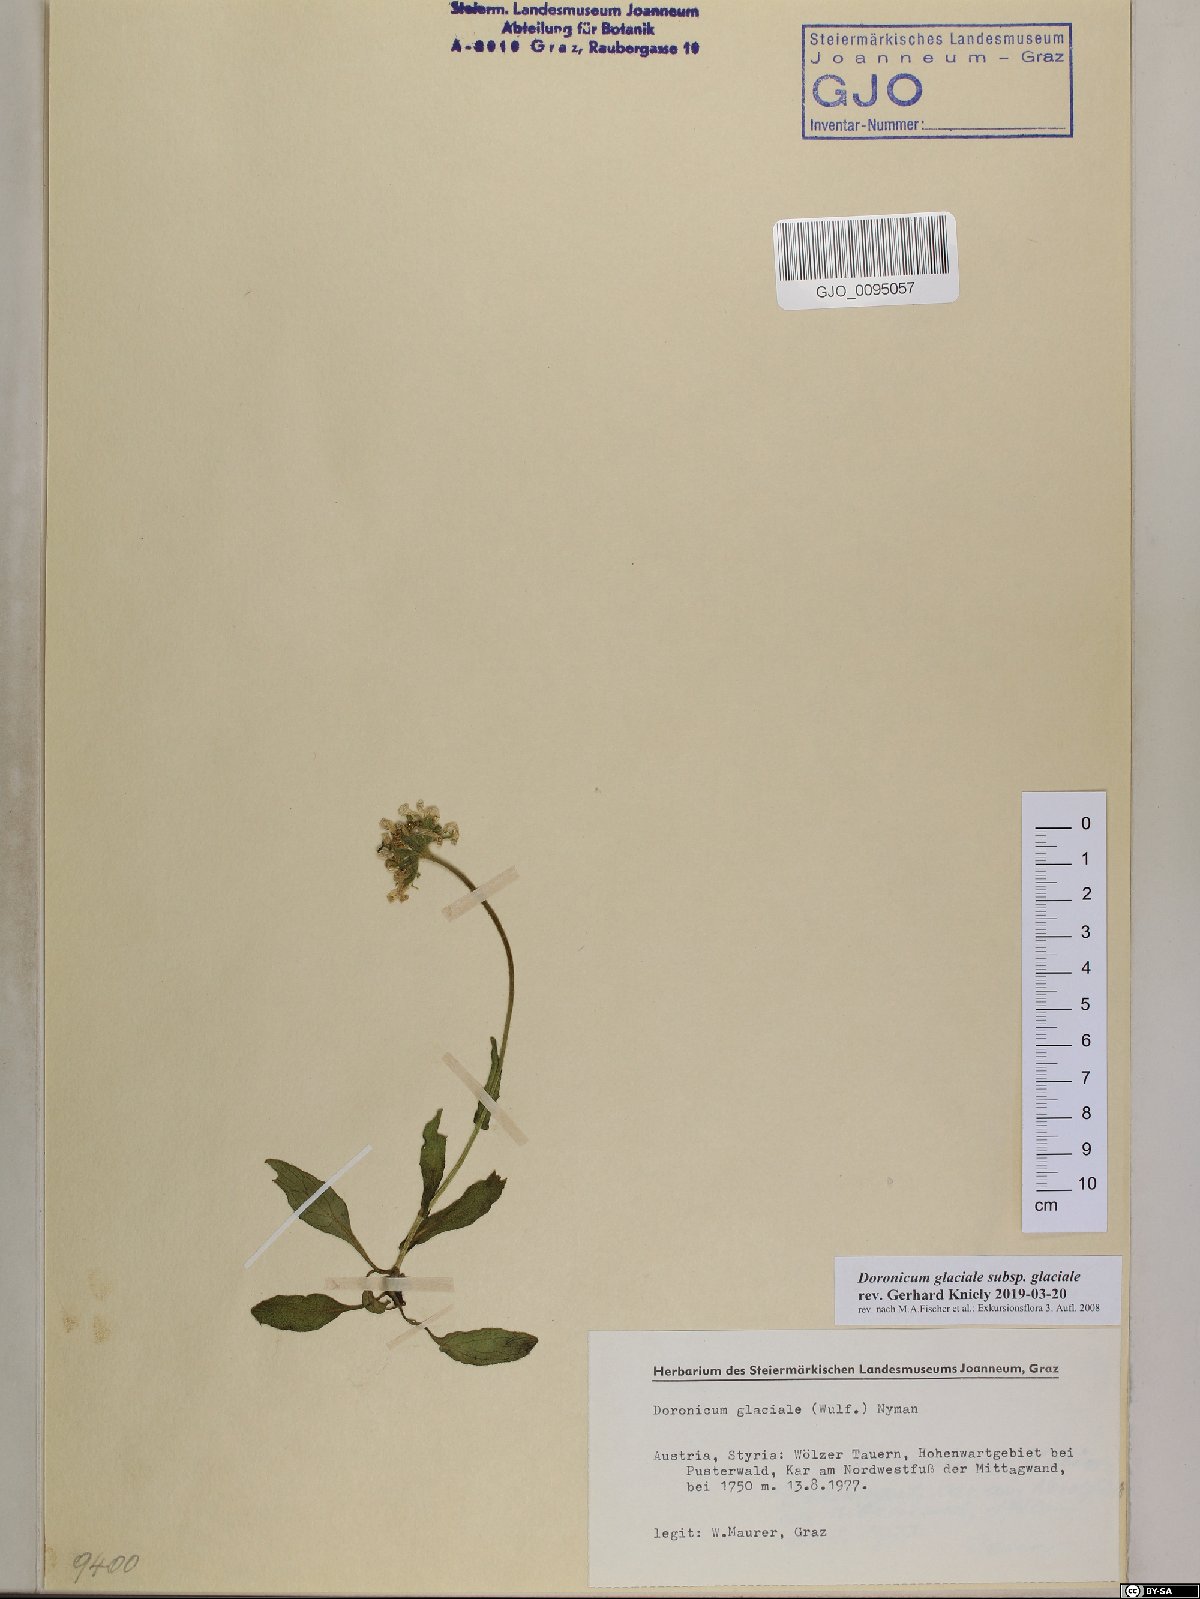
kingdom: Plantae
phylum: Tracheophyta
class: Magnoliopsida
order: Asterales
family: Asteraceae
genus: Doronicum
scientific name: Doronicum glaciale
